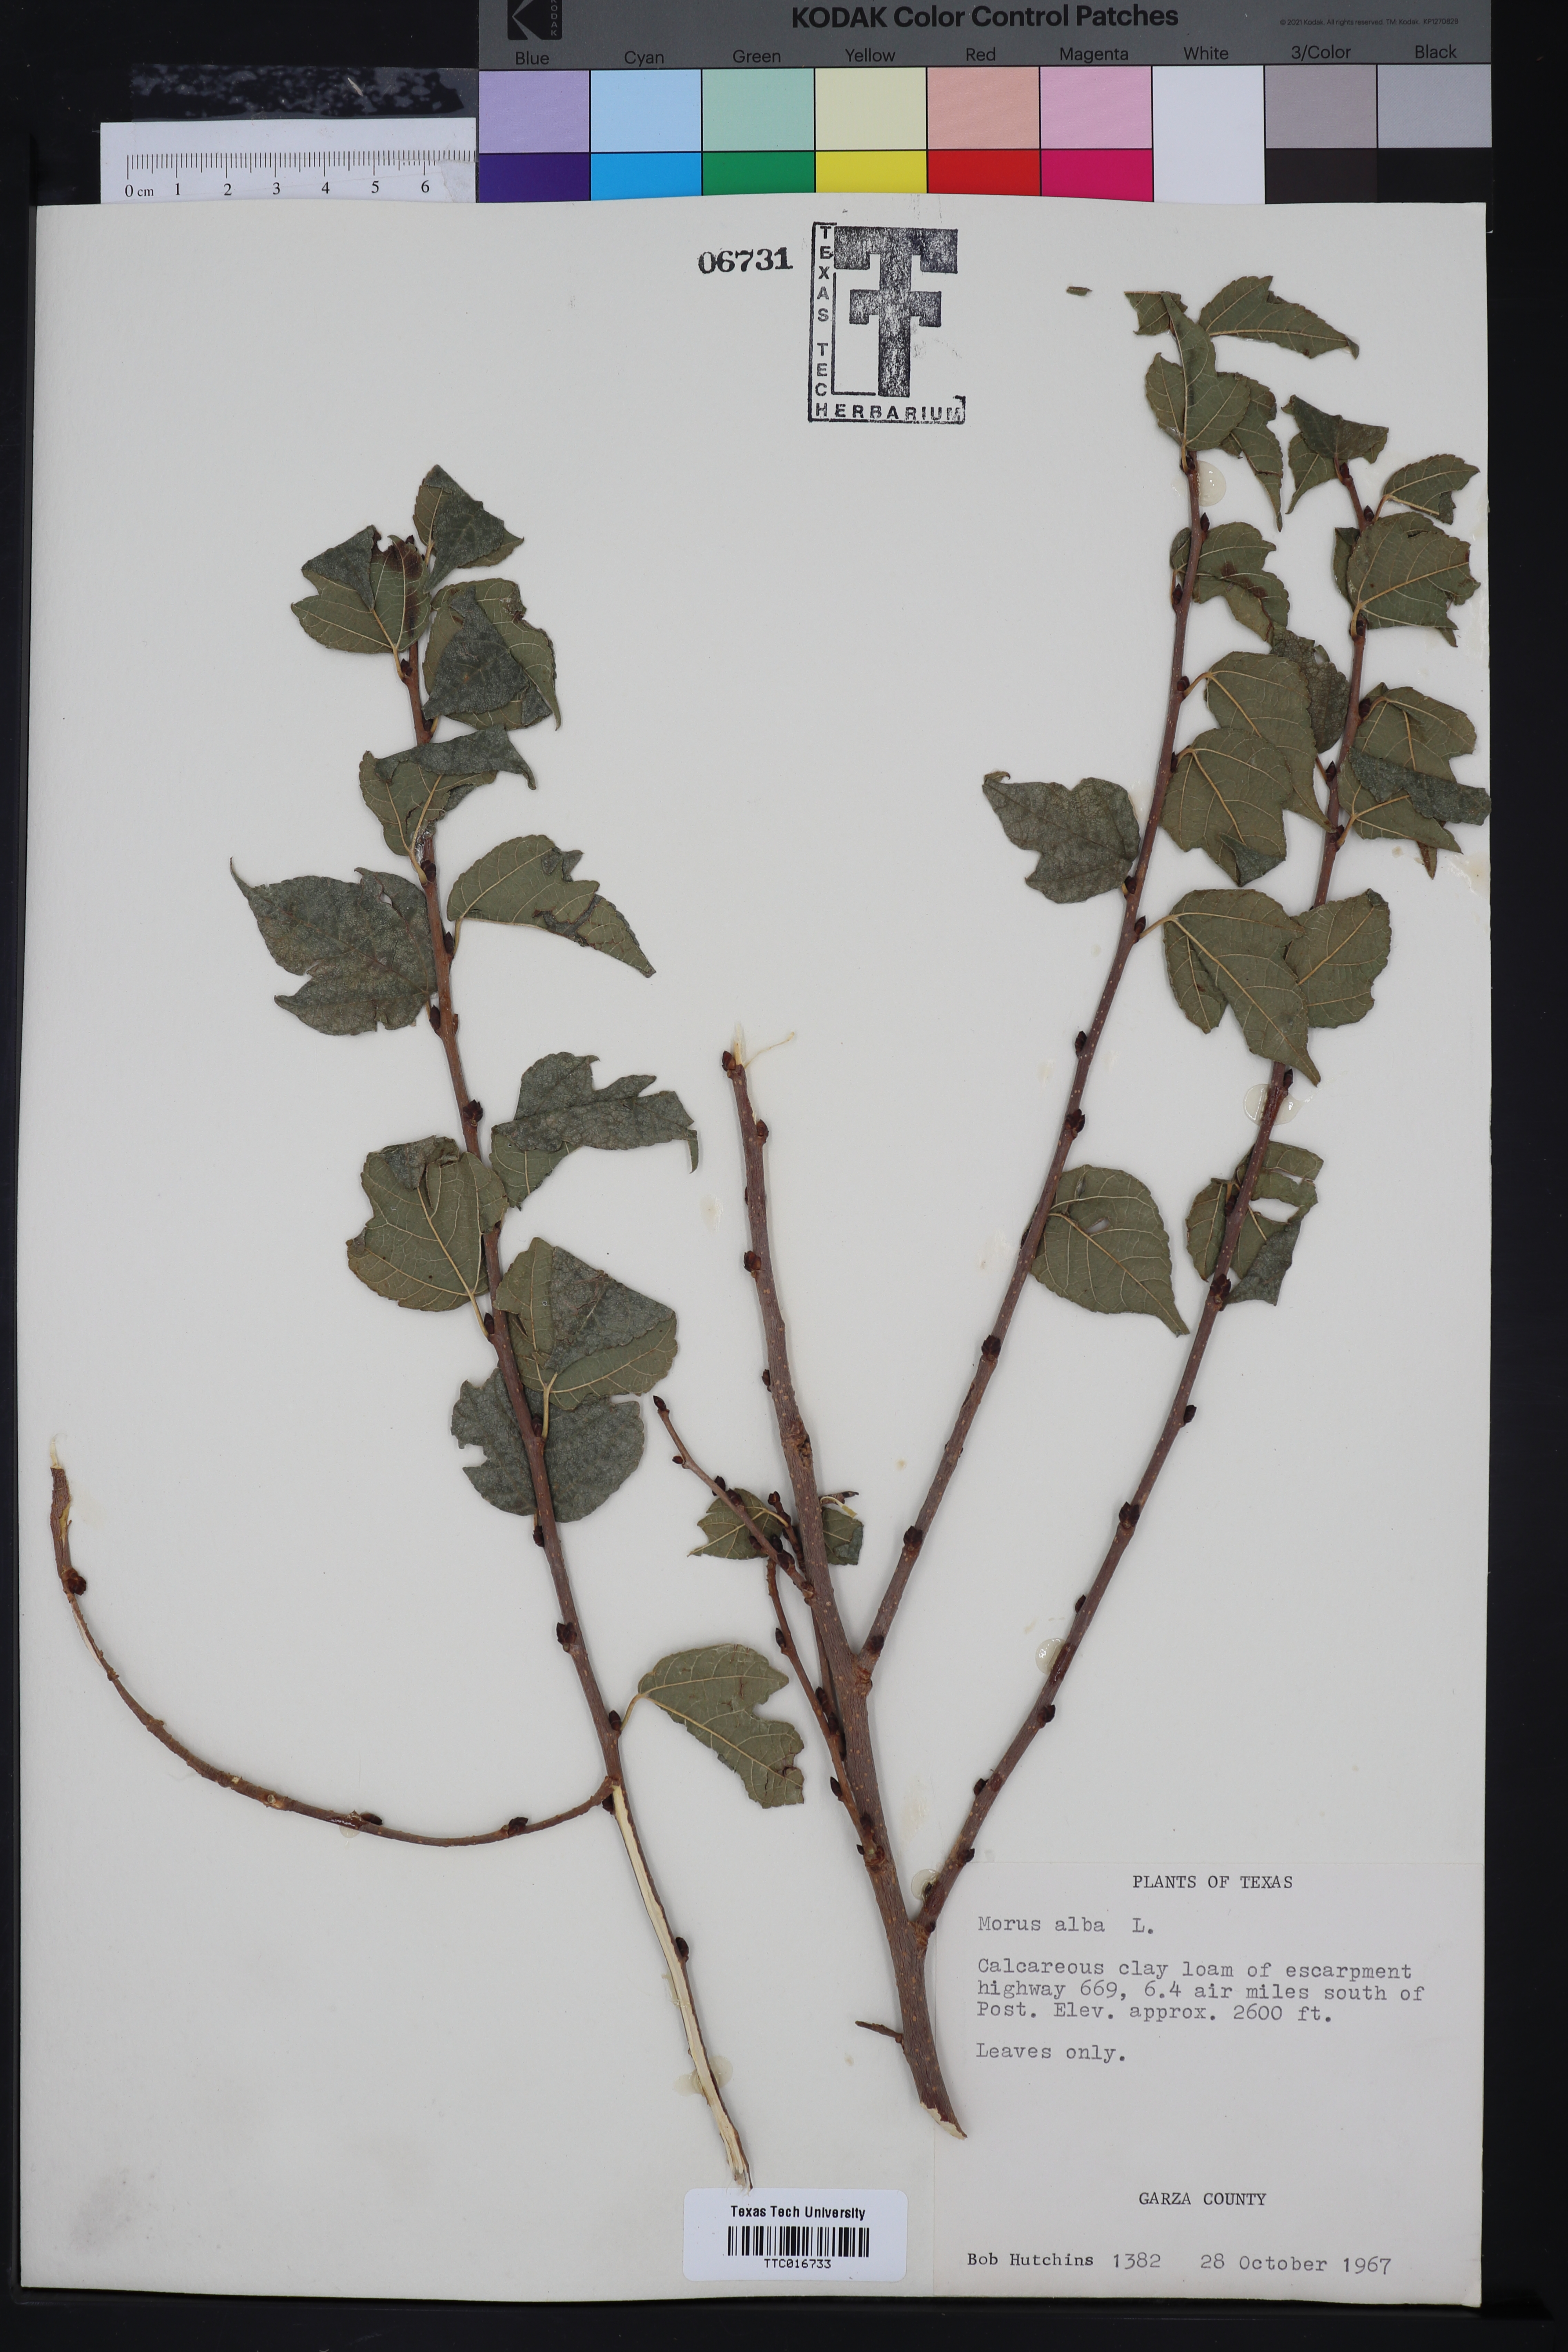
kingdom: Plantae
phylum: Tracheophyta
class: Magnoliopsida
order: Rosales
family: Moraceae
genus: Morus
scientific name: Morus alba
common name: White mulberry
